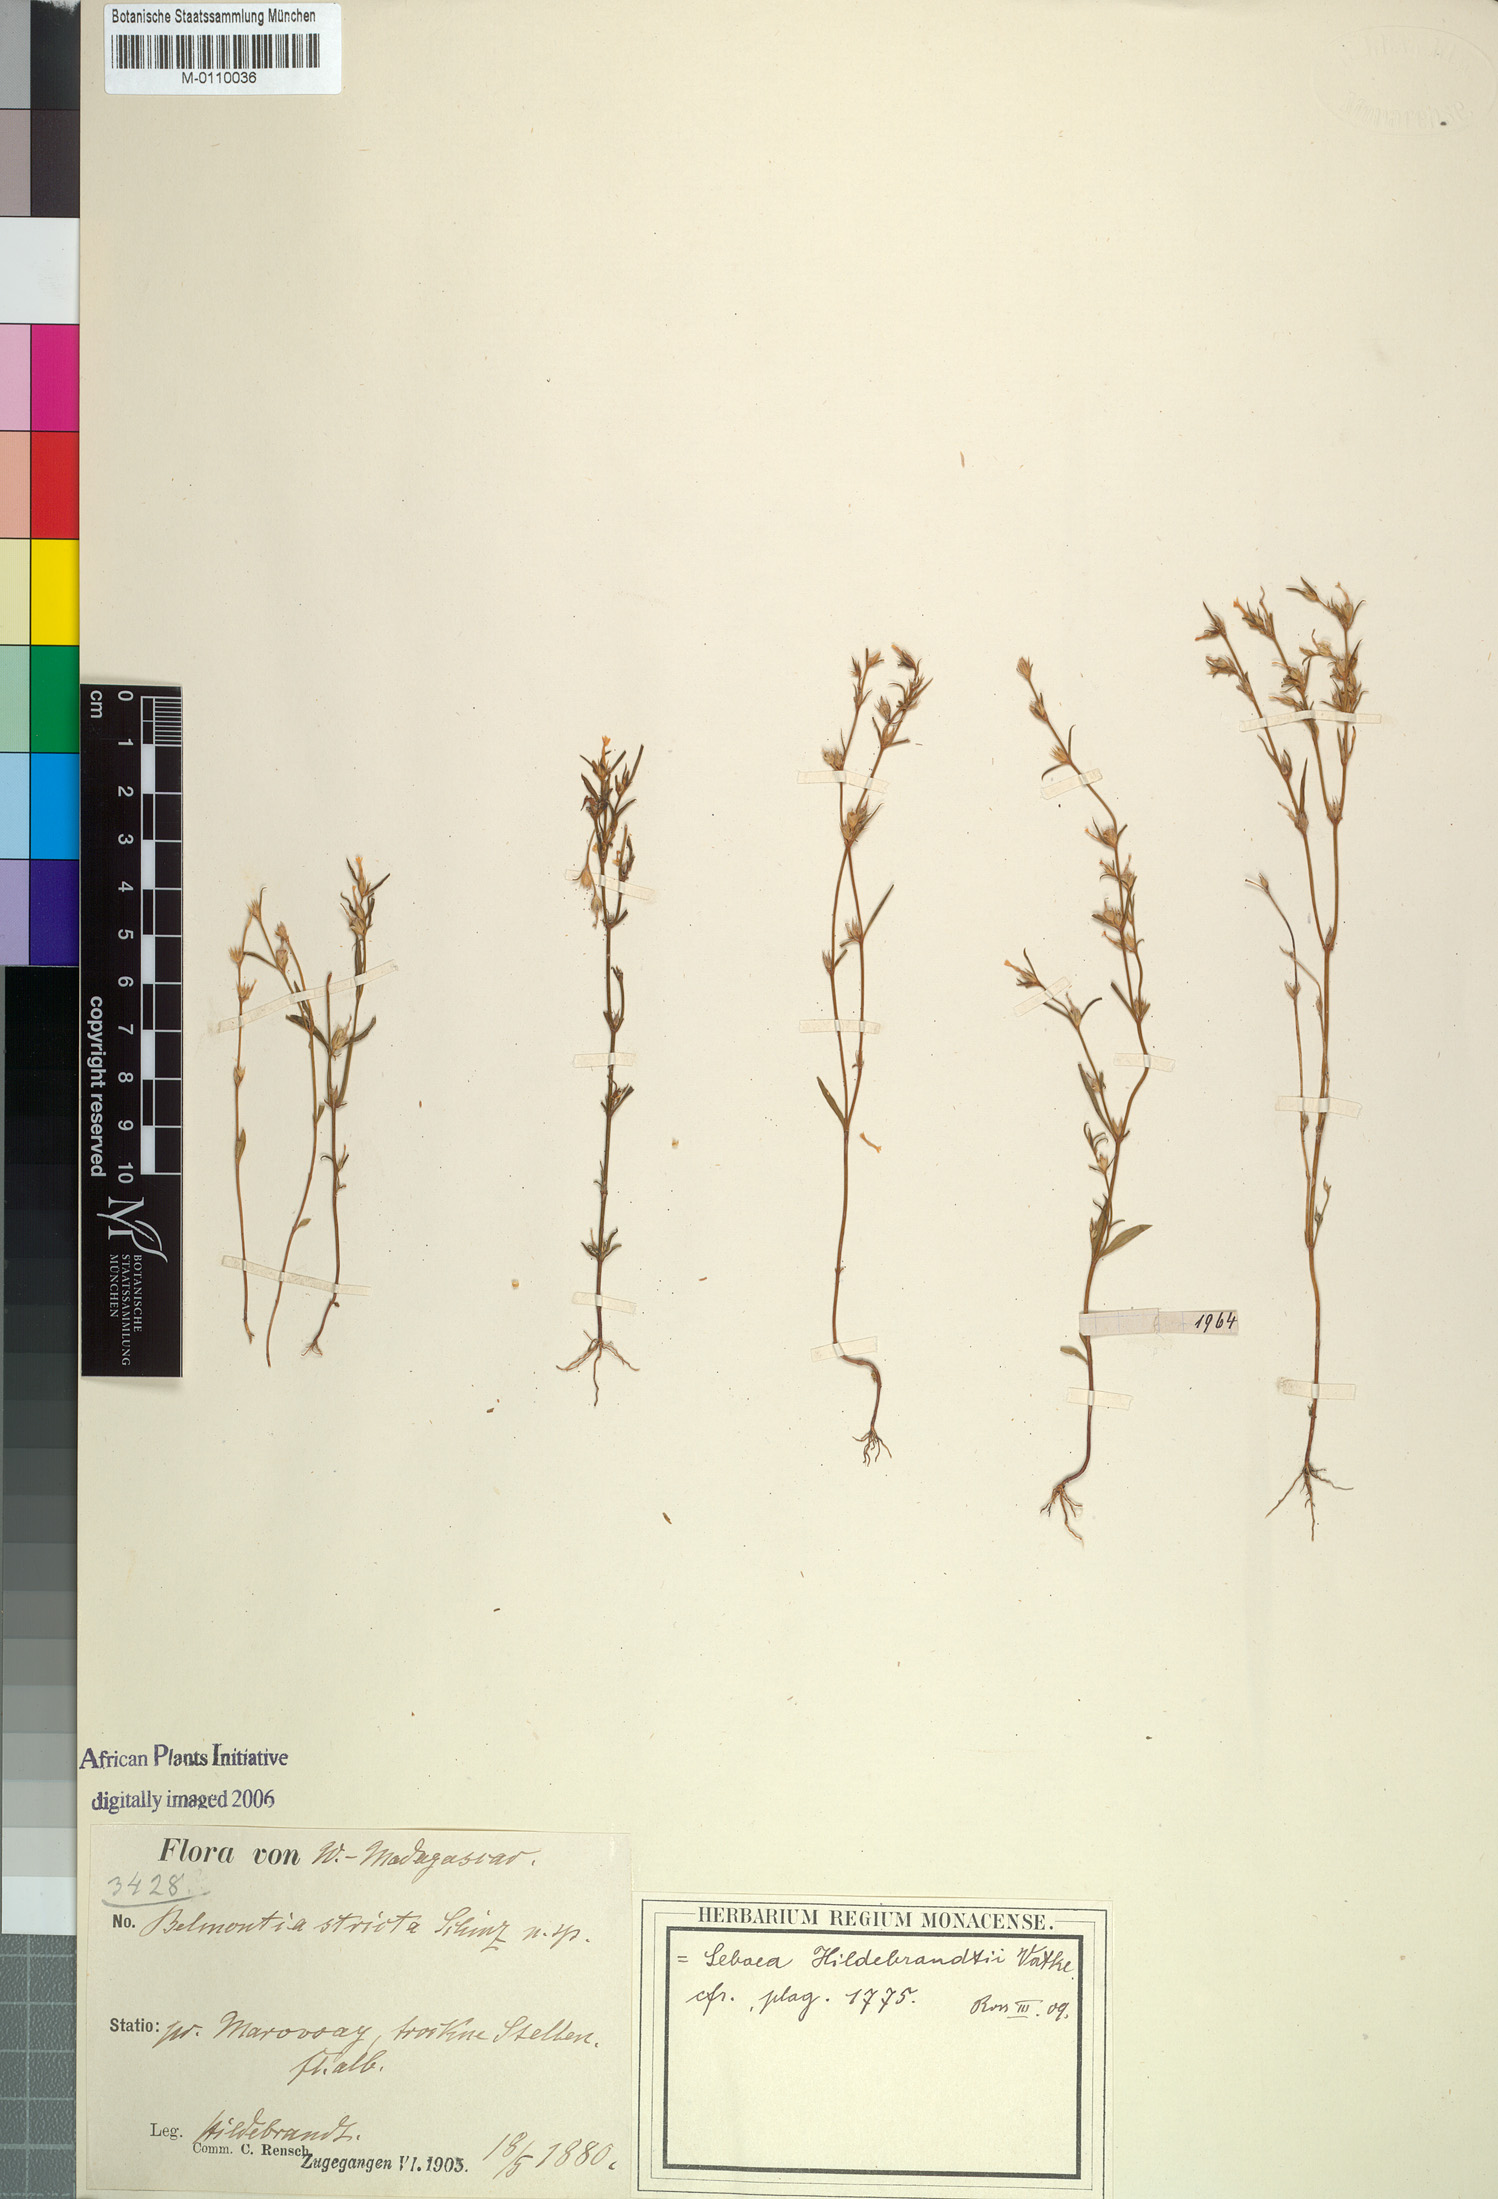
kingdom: Plantae
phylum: Tracheophyta
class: Magnoliopsida
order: Gentianales
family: Gentianaceae
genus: Klackenbergia
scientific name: Klackenbergia stricta
